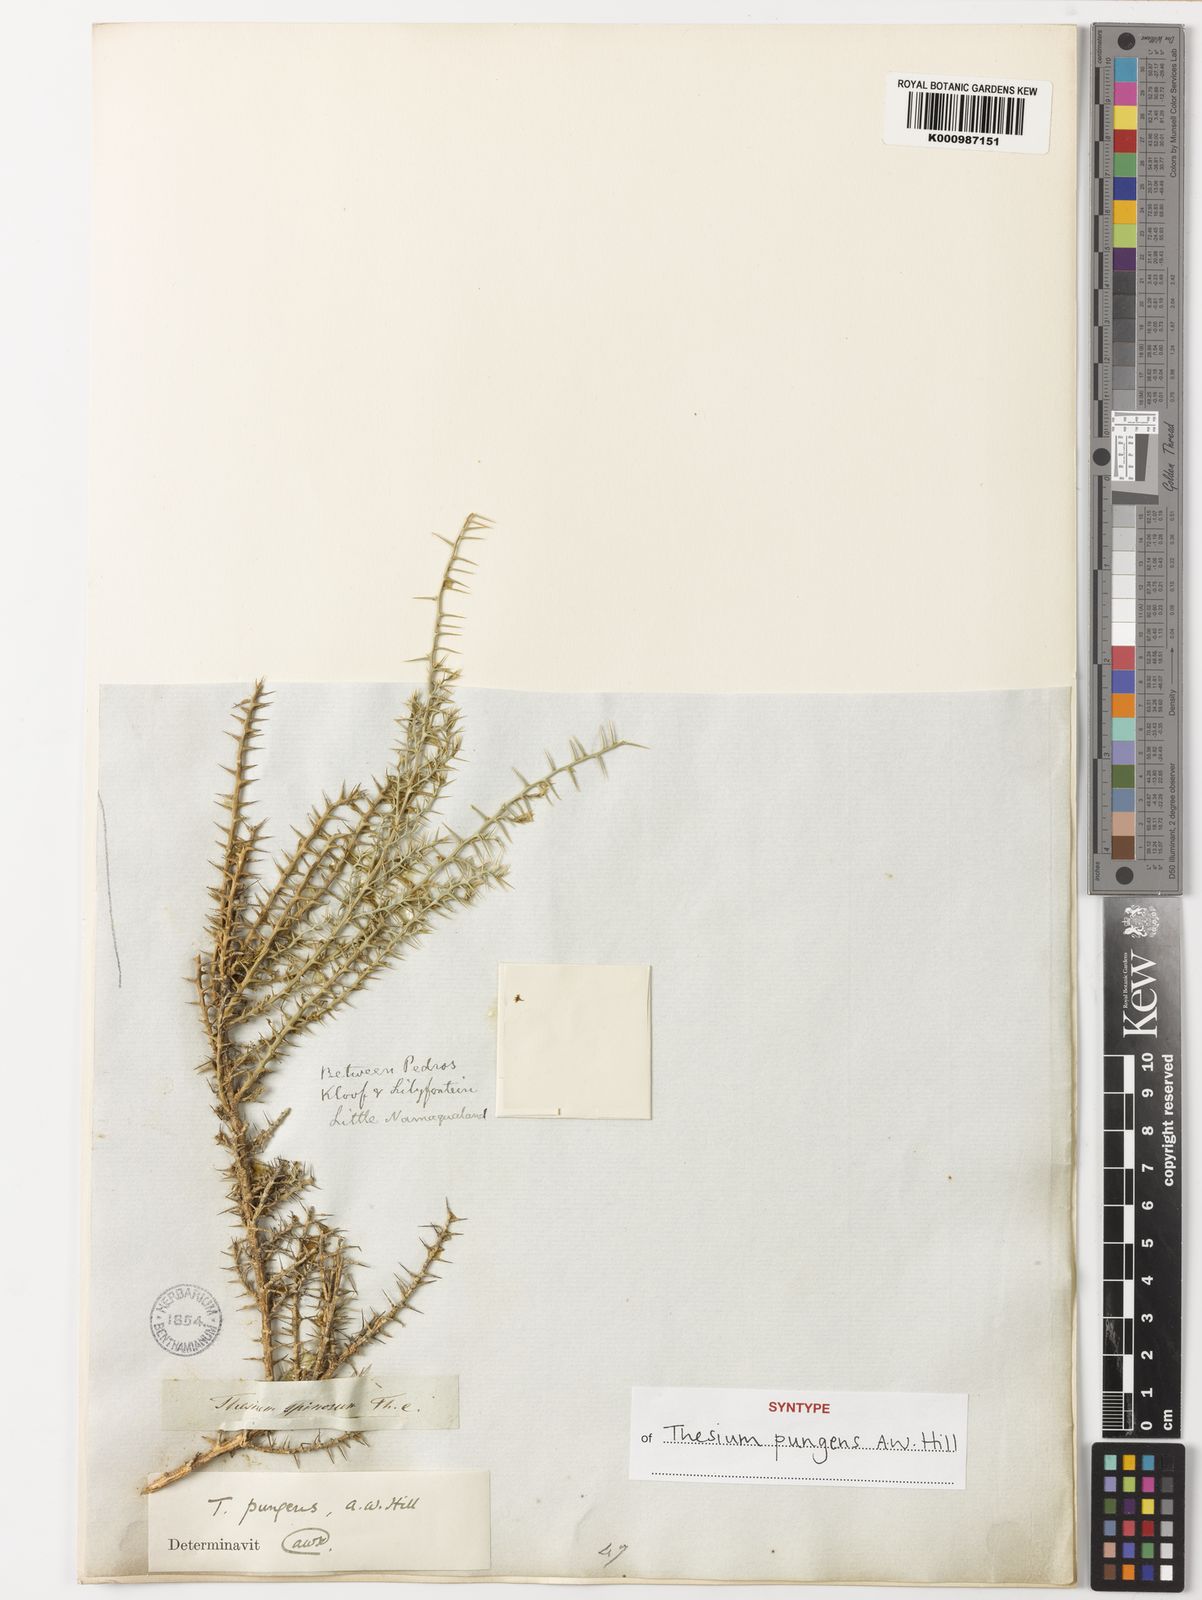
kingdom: Plantae
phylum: Tracheophyta
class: Magnoliopsida
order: Santalales
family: Thesiaceae
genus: Thesium
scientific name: Thesium pungens
